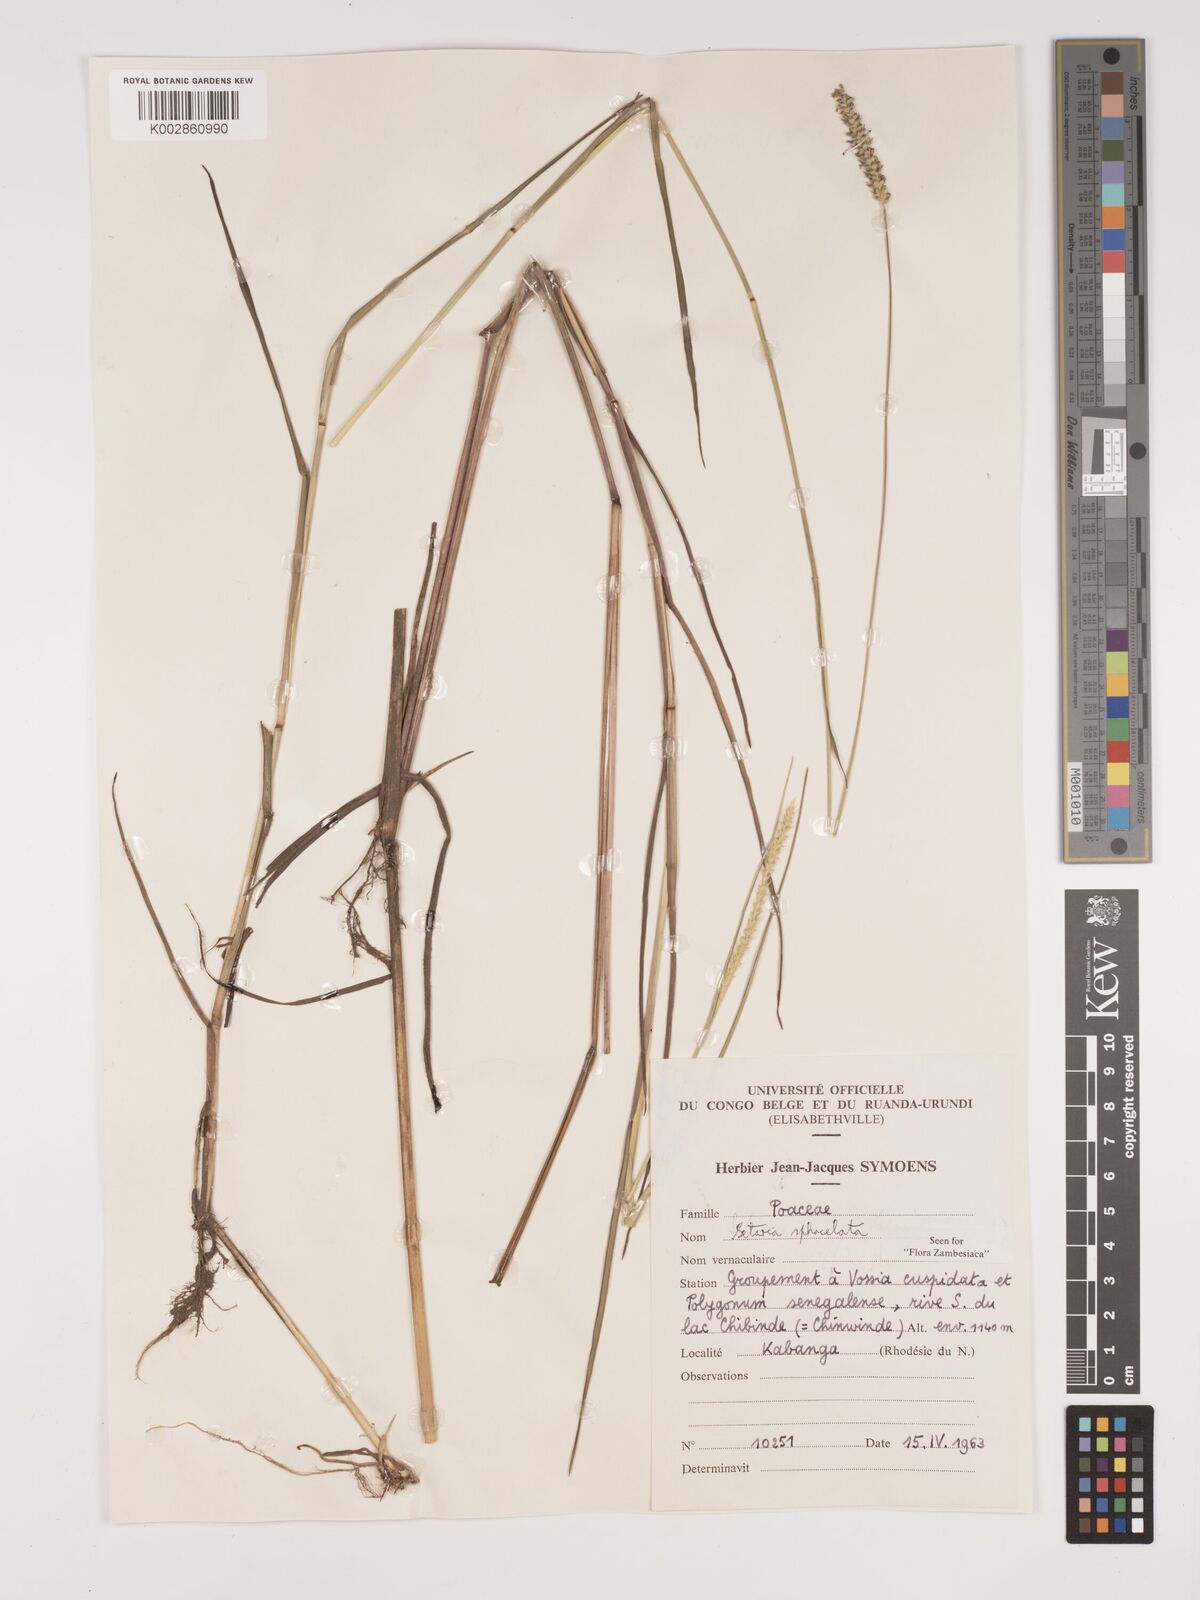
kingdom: Plantae
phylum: Tracheophyta
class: Liliopsida
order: Poales
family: Poaceae
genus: Setaria
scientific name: Setaria
